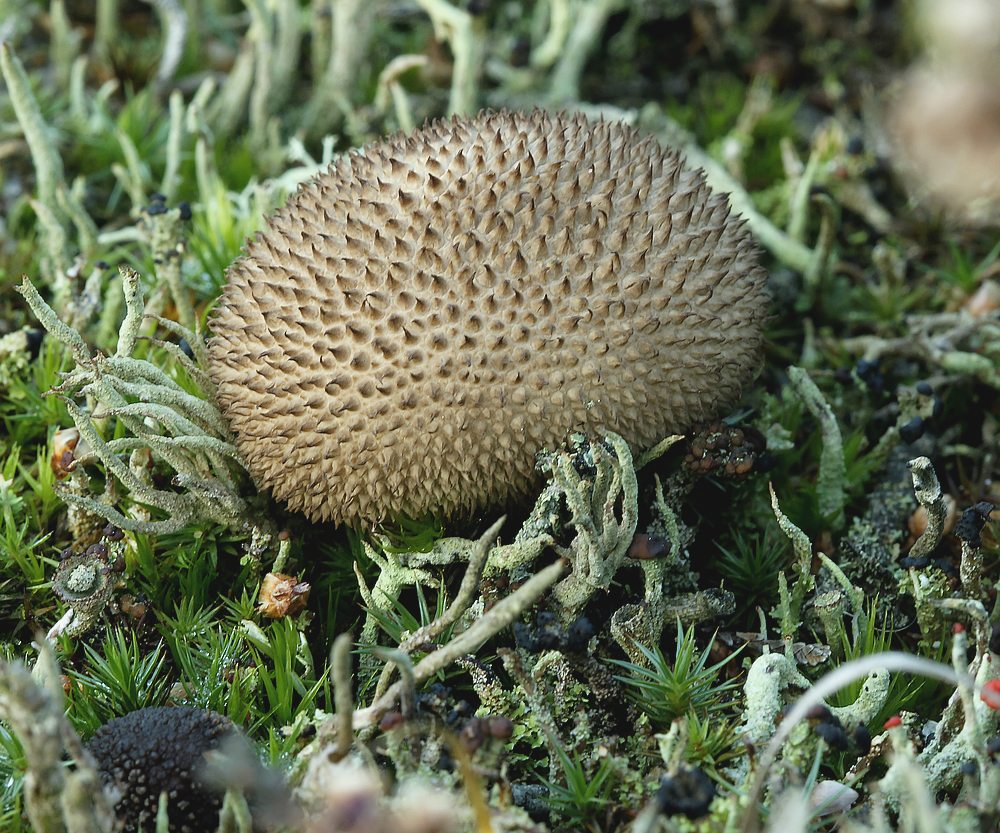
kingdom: Fungi
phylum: Basidiomycota
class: Agaricomycetes
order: Agaricales
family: Lycoperdaceae
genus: Lycoperdon
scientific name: Lycoperdon nigrescens
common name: sortagtig støvbold
